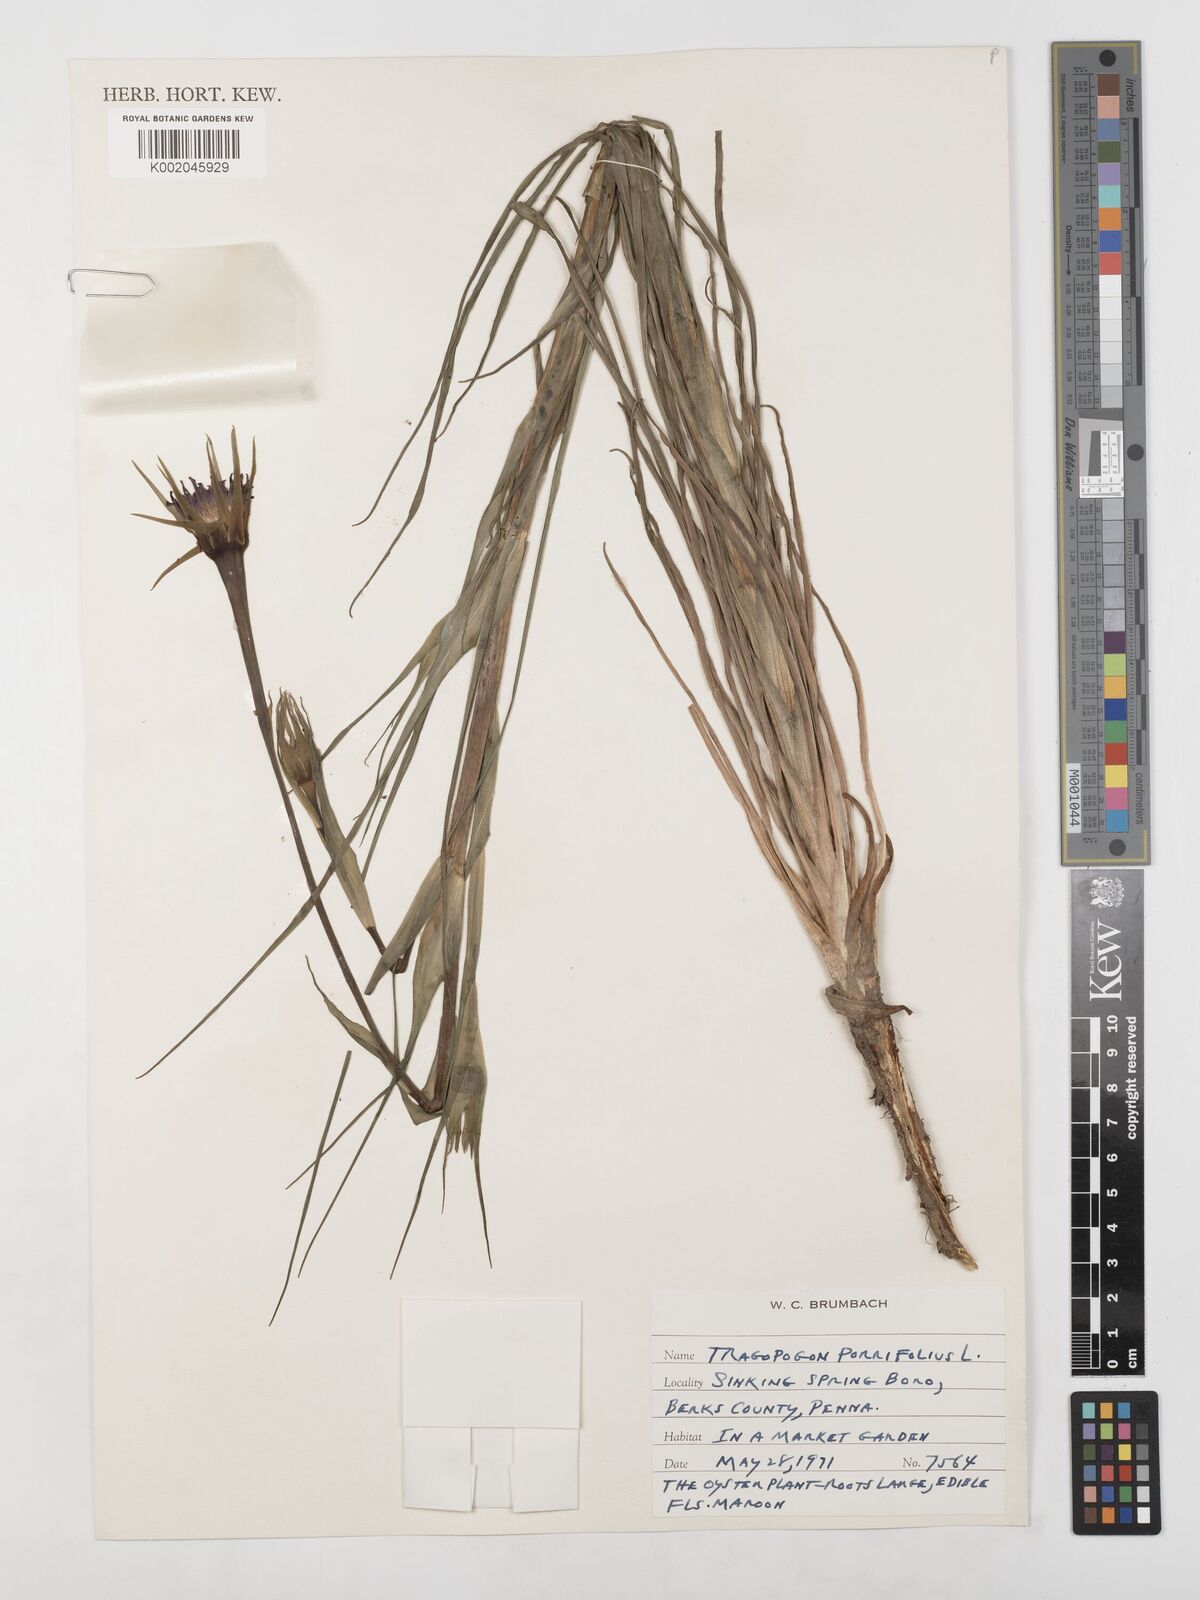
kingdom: Plantae
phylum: Tracheophyta
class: Magnoliopsida
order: Asterales
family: Asteraceae
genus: Tragopogon
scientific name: Tragopogon porrifolius
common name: Salsify
